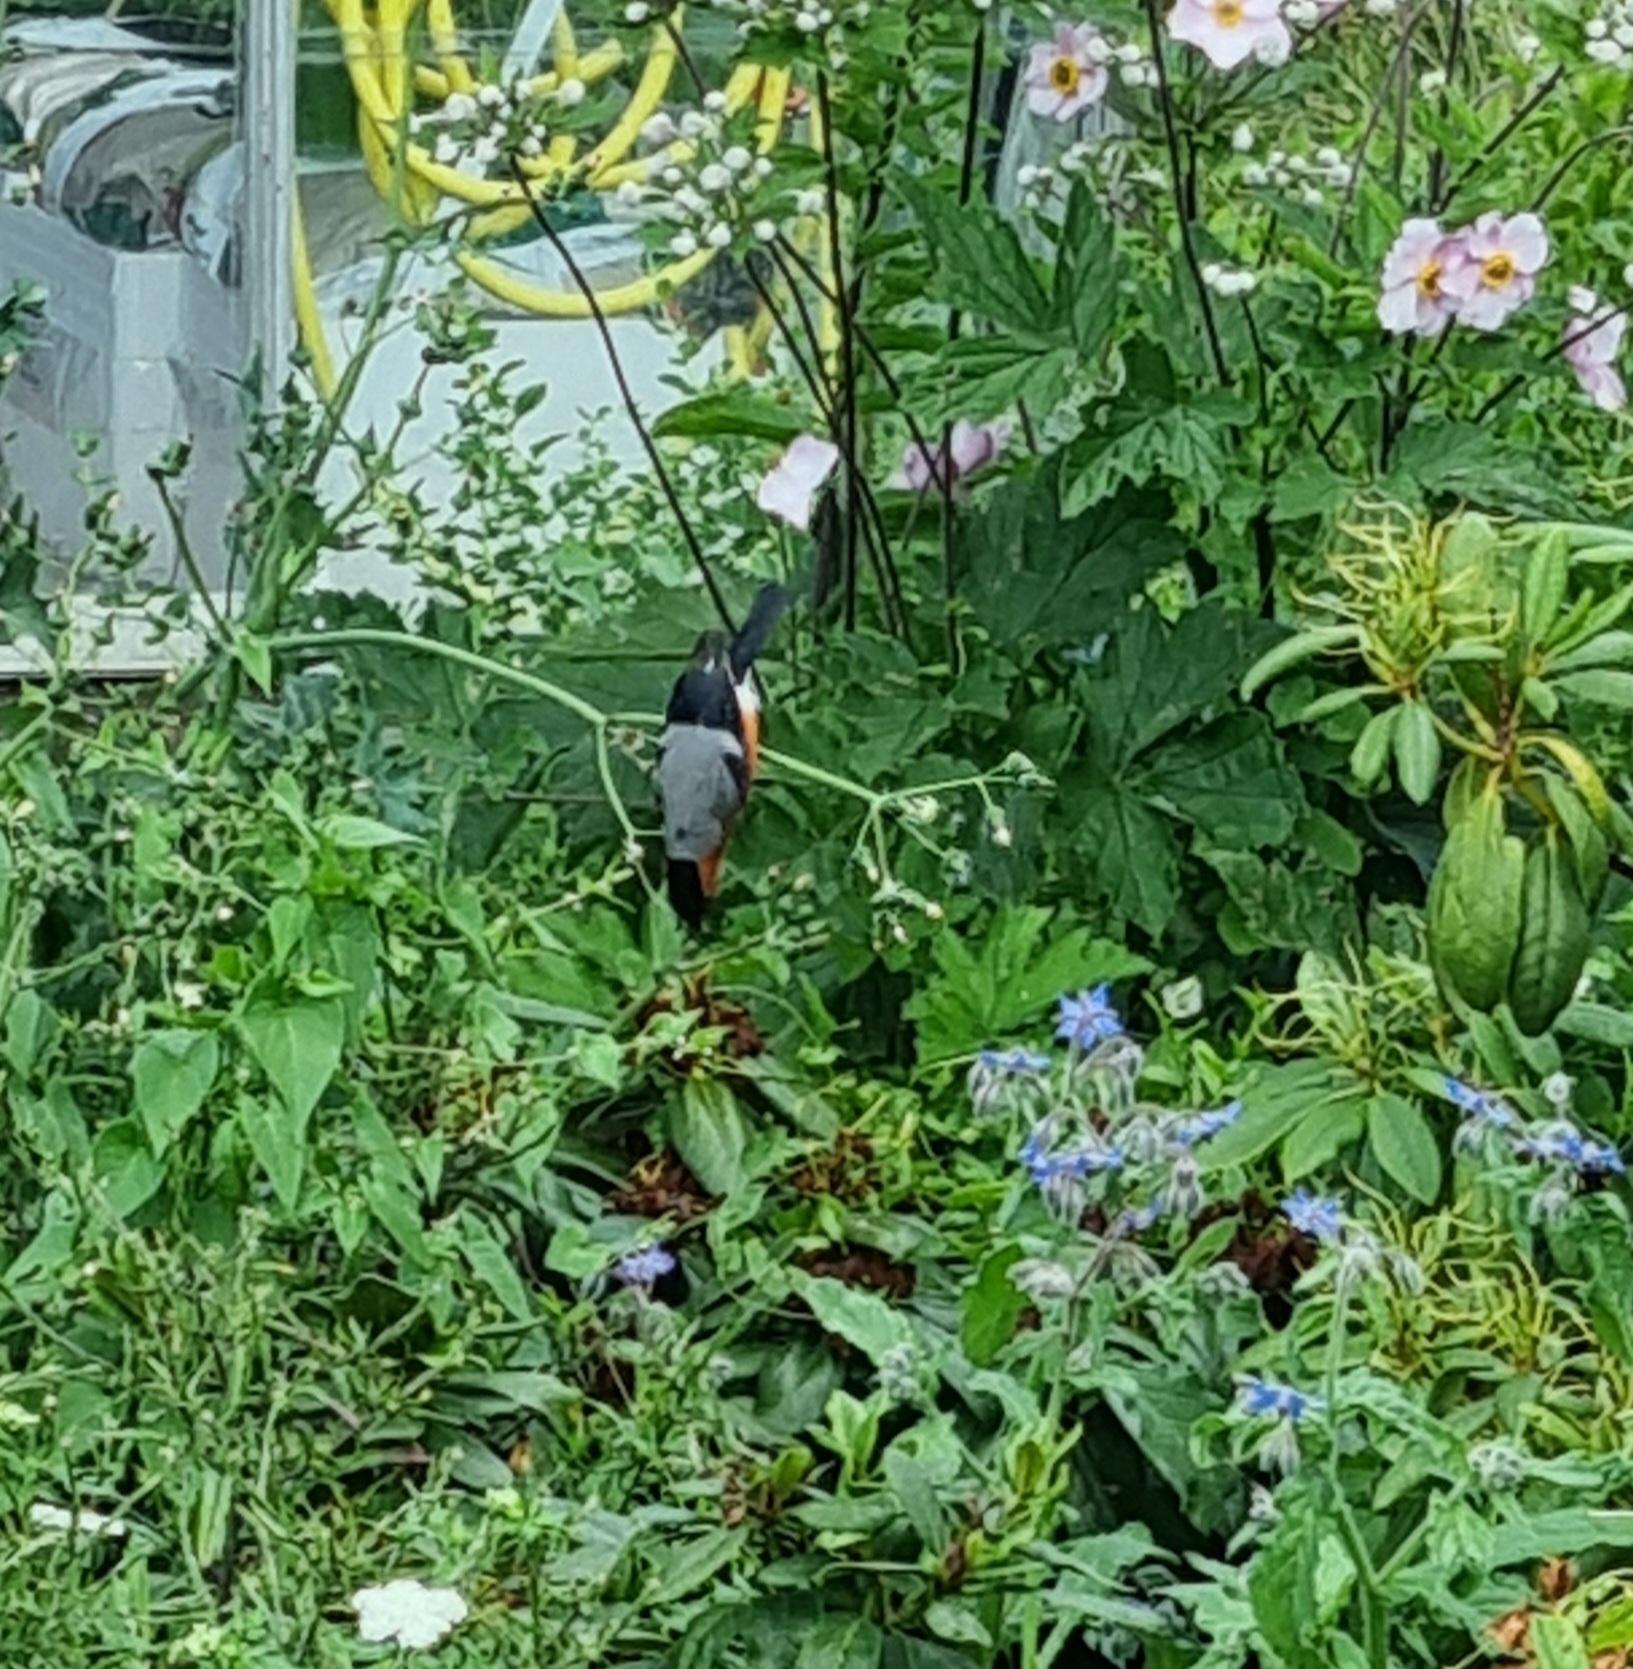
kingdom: Animalia
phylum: Chordata
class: Aves
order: Passeriformes
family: Fringillidae
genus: Pyrrhula
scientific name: Pyrrhula pyrrhula
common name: Dompap
